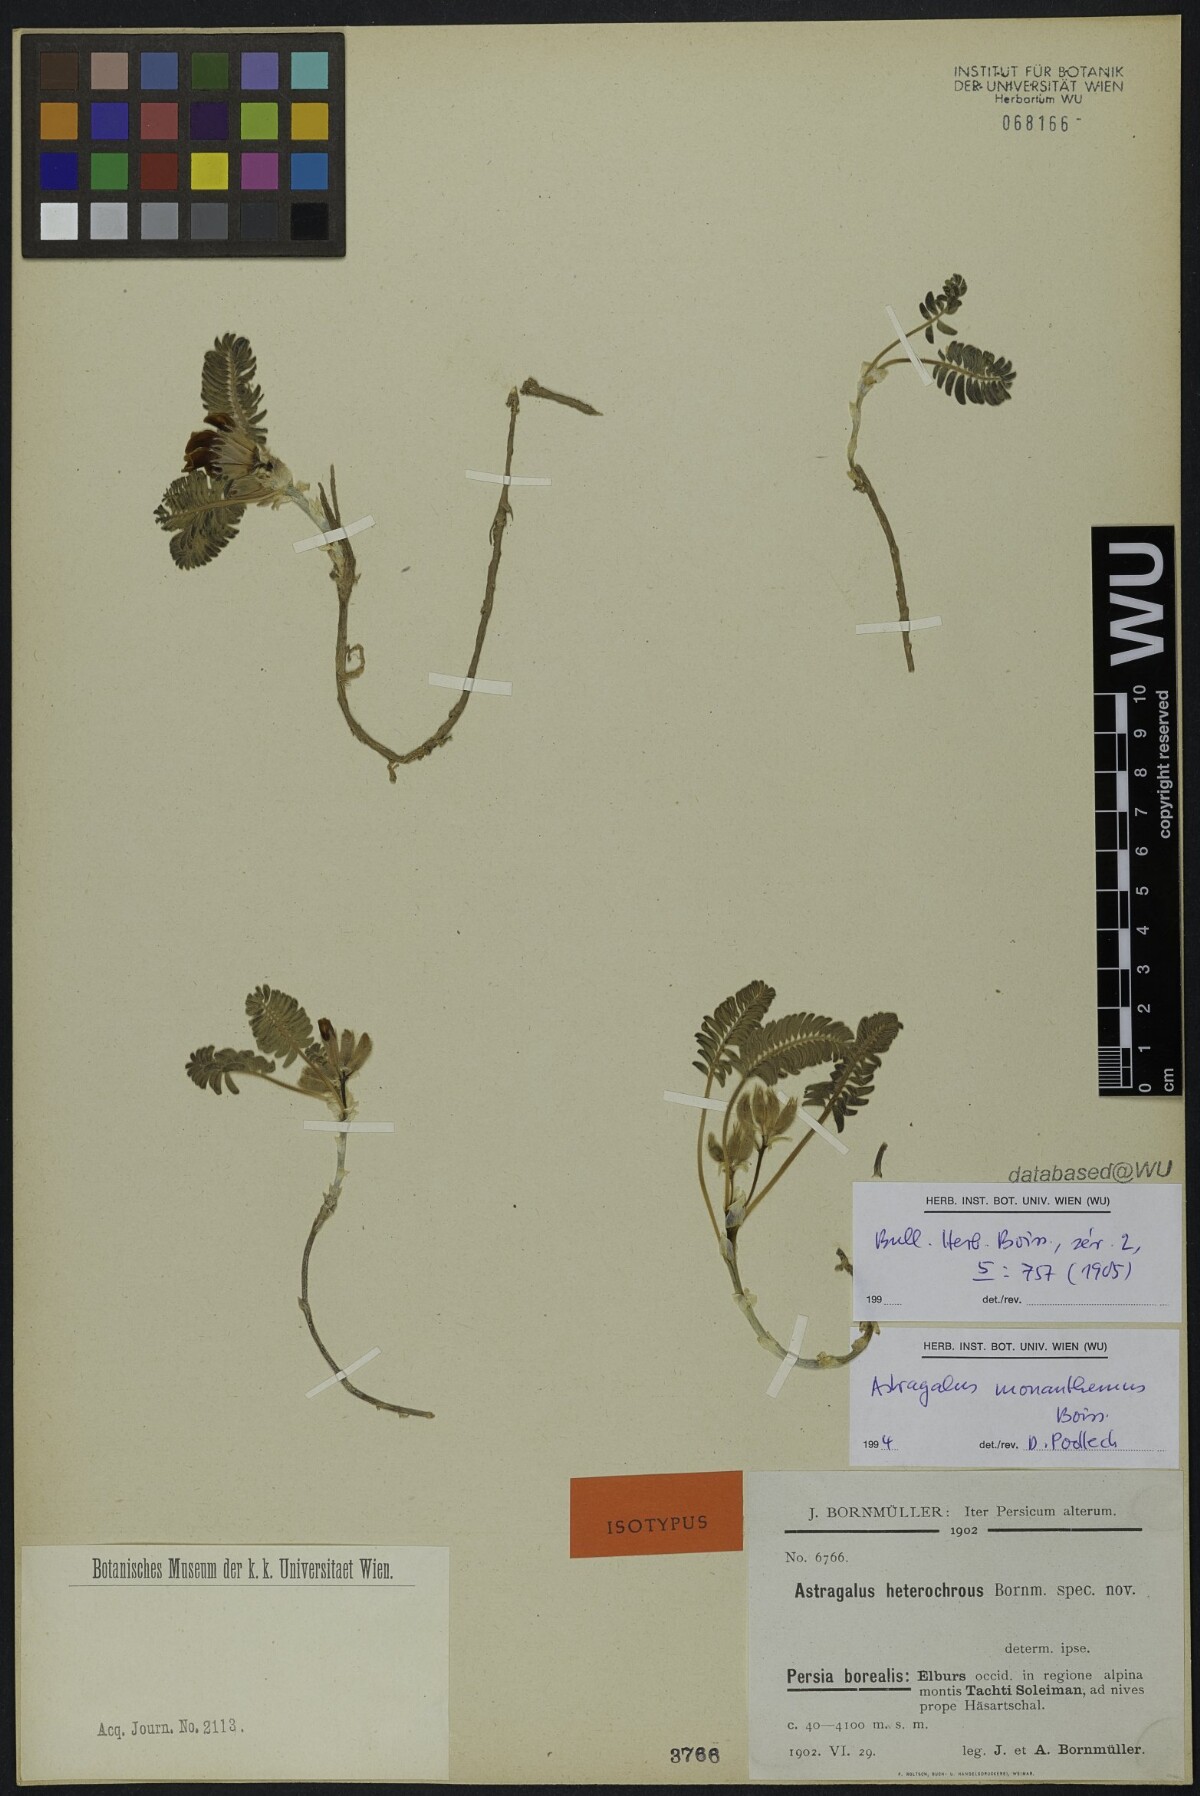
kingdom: Plantae
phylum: Tracheophyta
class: Magnoliopsida
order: Fabales
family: Fabaceae
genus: Astragalus
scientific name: Astragalus heterochrous
